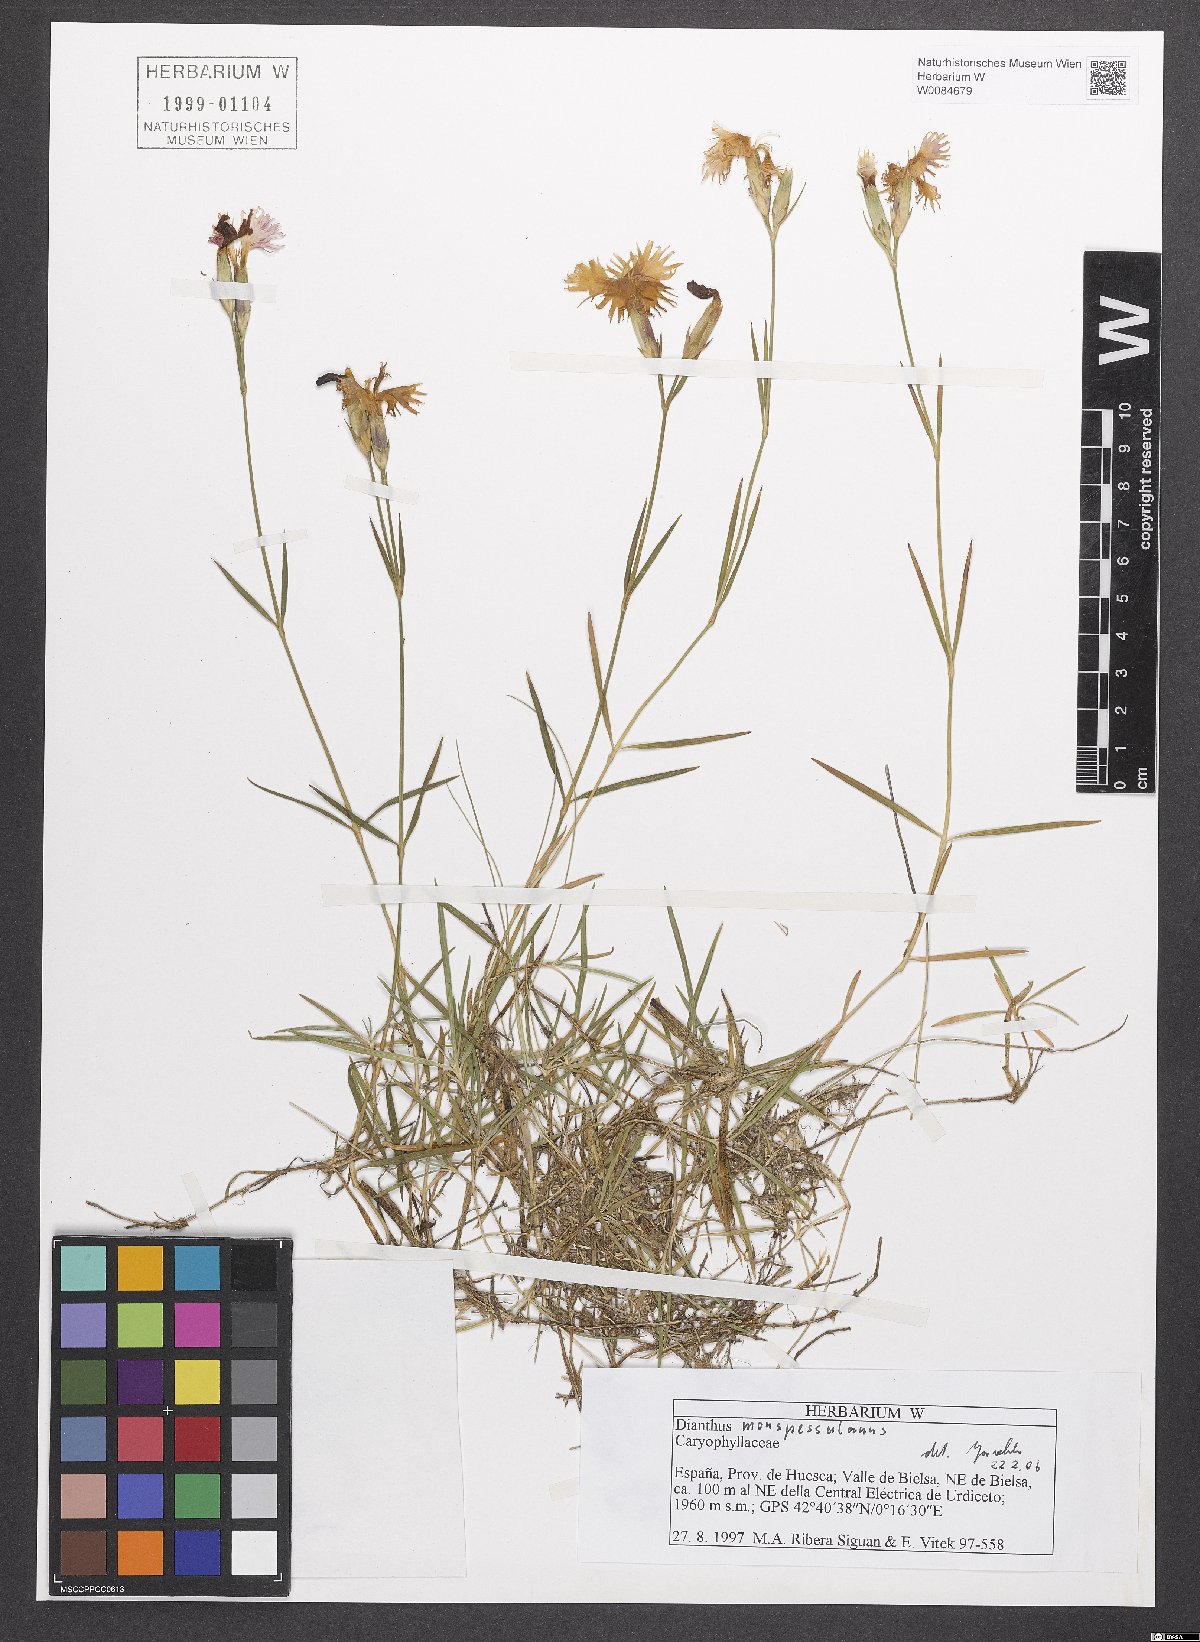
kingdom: Plantae
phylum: Tracheophyta
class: Magnoliopsida
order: Caryophyllales
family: Caryophyllaceae
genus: Dianthus
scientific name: Dianthus hyssopifolius
